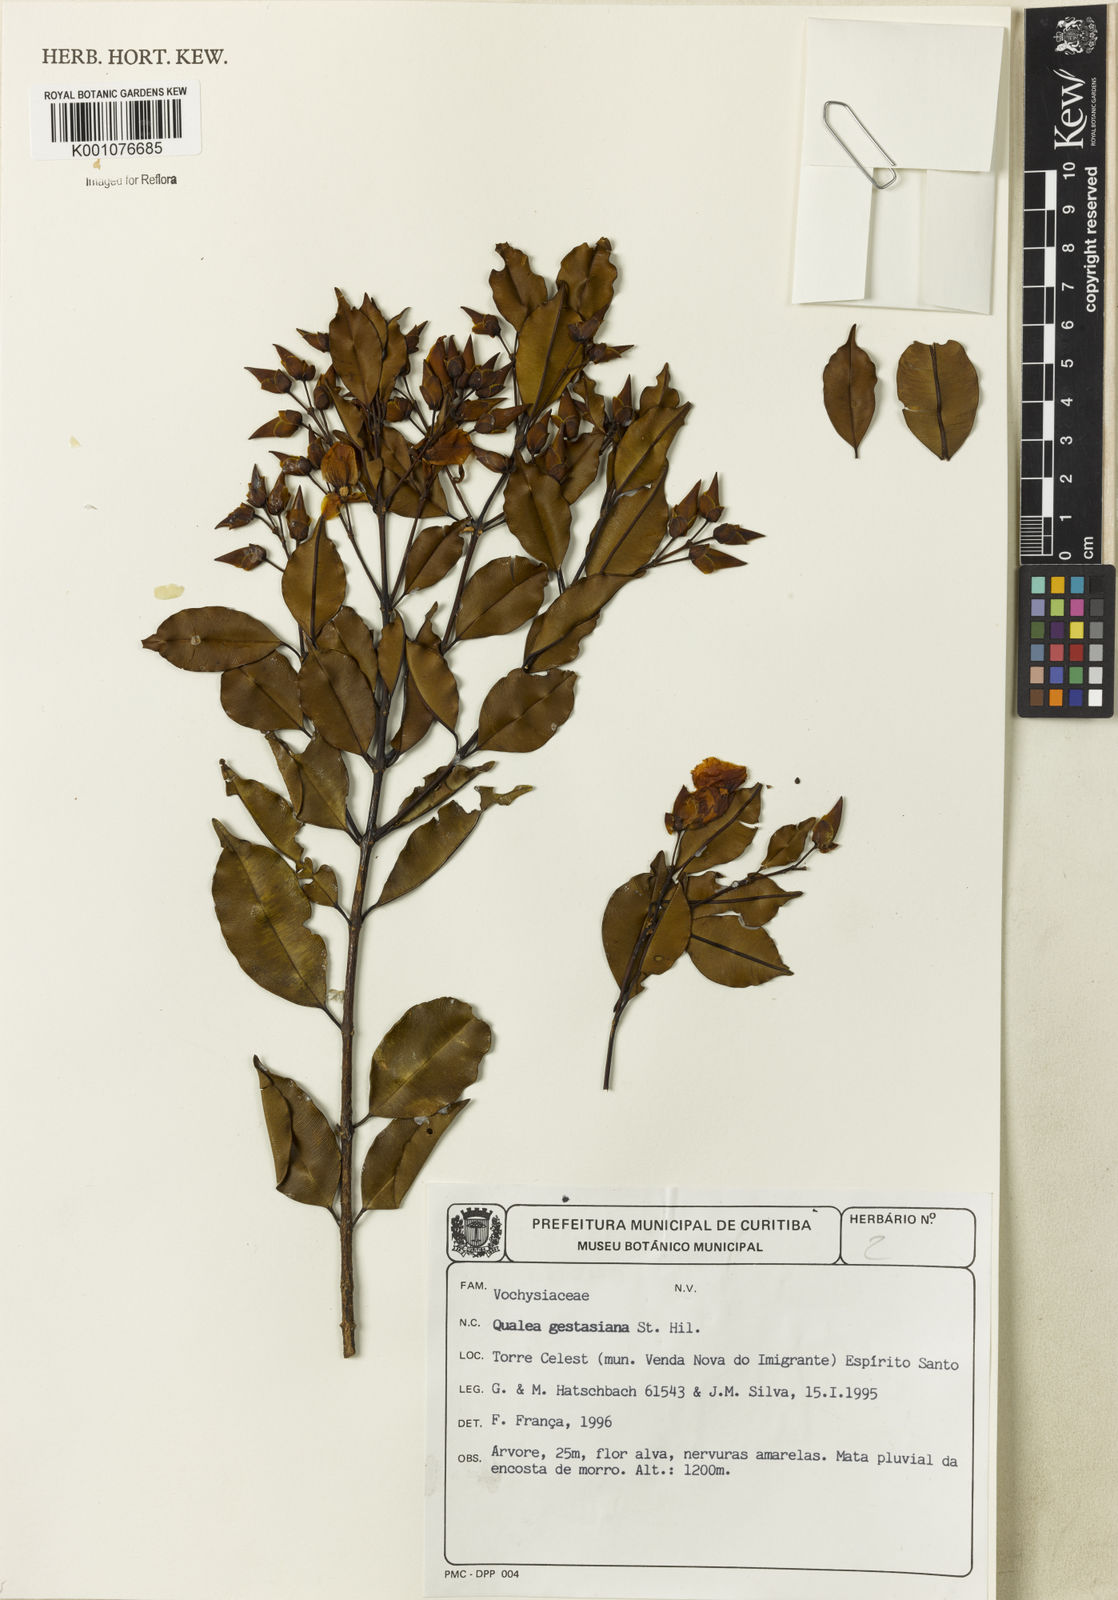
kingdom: Plantae
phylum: Tracheophyta
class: Magnoliopsida
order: Myrtales
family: Vochysiaceae
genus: Qualea
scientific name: Qualea gestasiana
